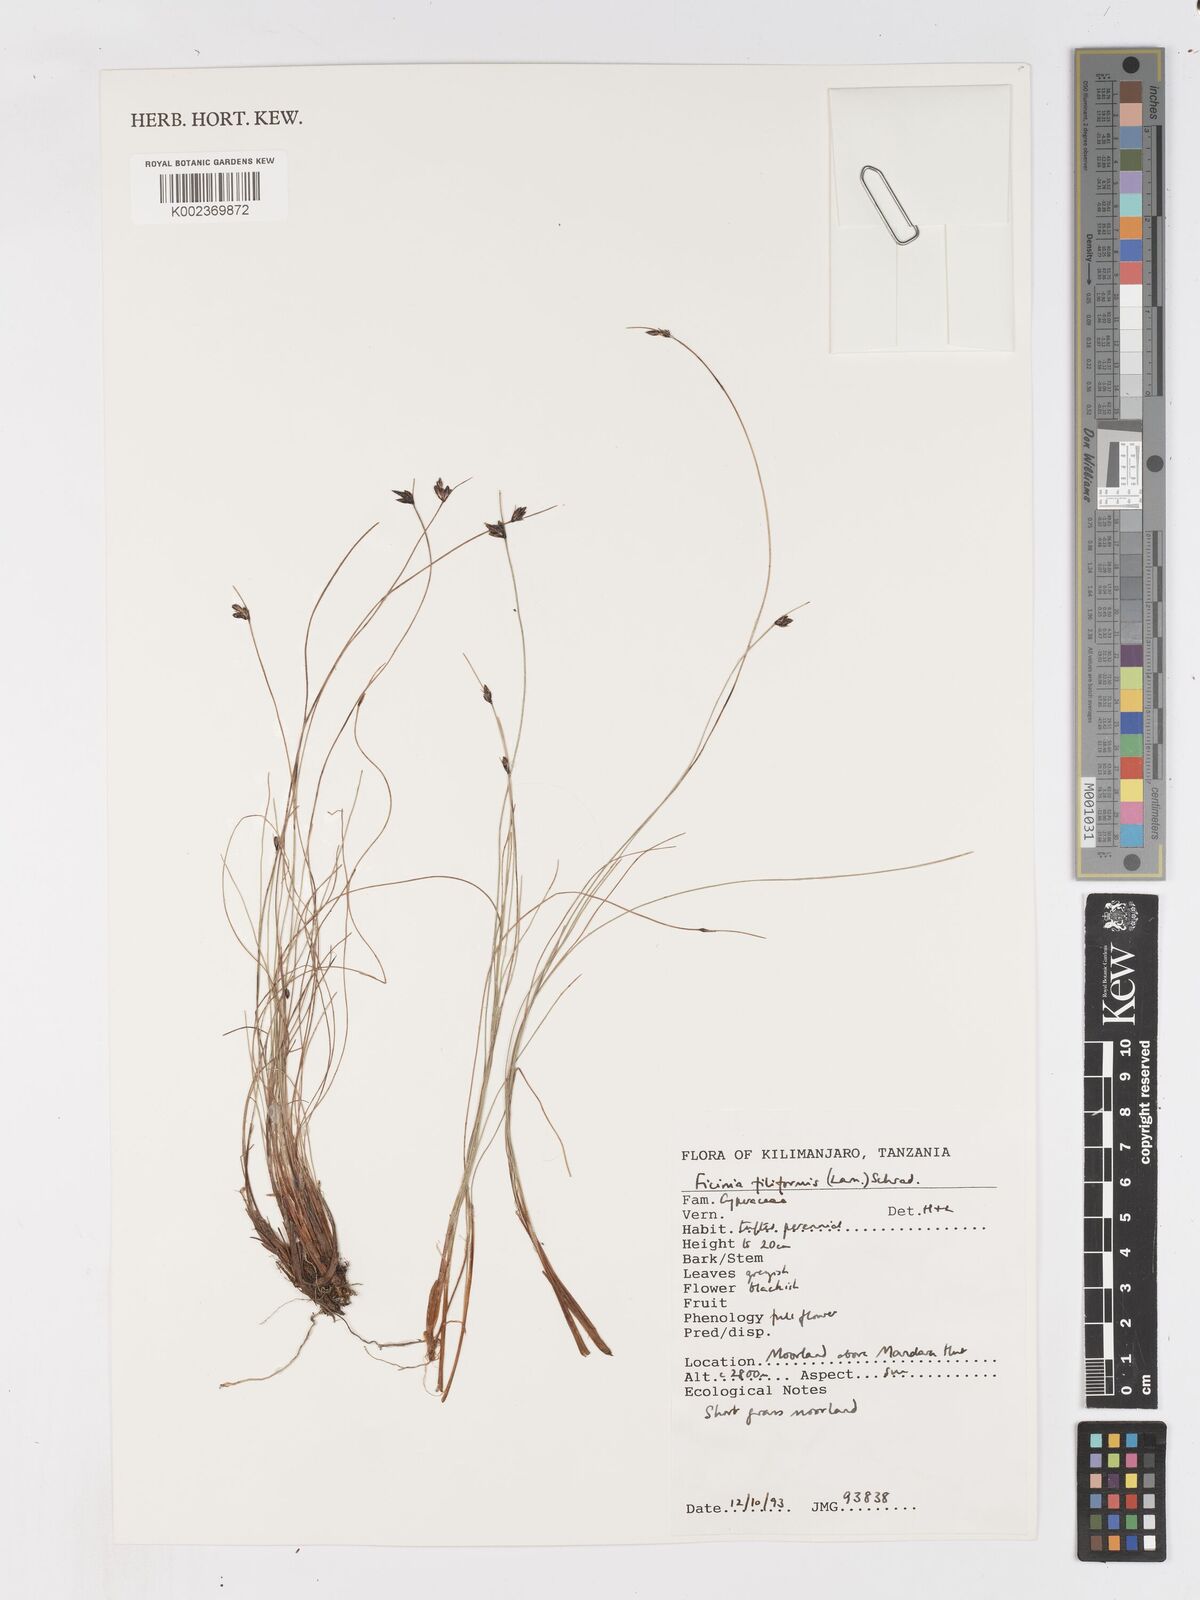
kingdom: Plantae
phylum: Tracheophyta
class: Liliopsida
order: Poales
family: Cyperaceae
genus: Ficinia
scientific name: Ficinia filiformis
